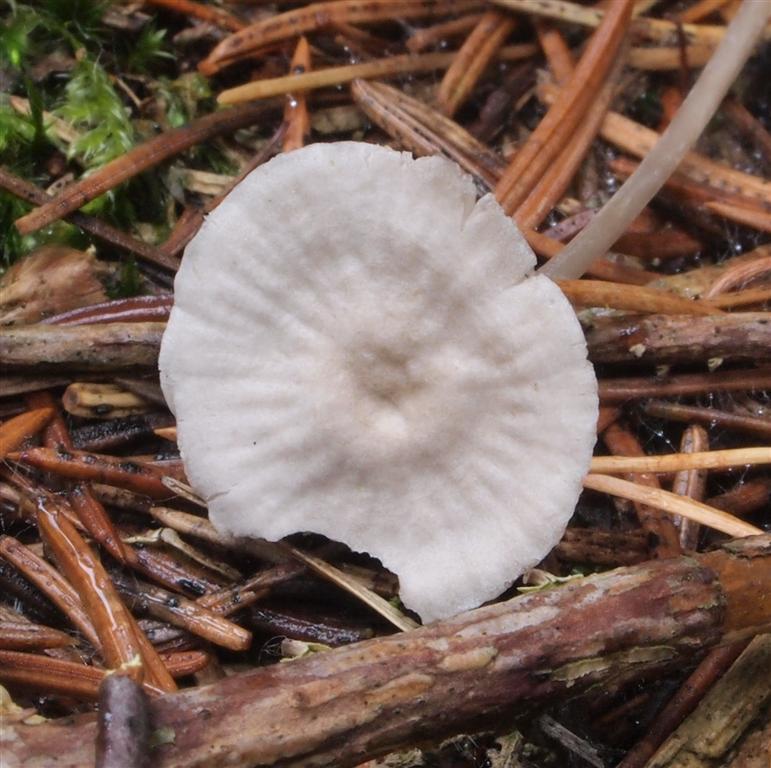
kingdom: Fungi
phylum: Basidiomycota
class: Agaricomycetes
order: Agaricales
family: Mycenaceae
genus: Mycena
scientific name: Mycena cinerella
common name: mel-huesvamp
